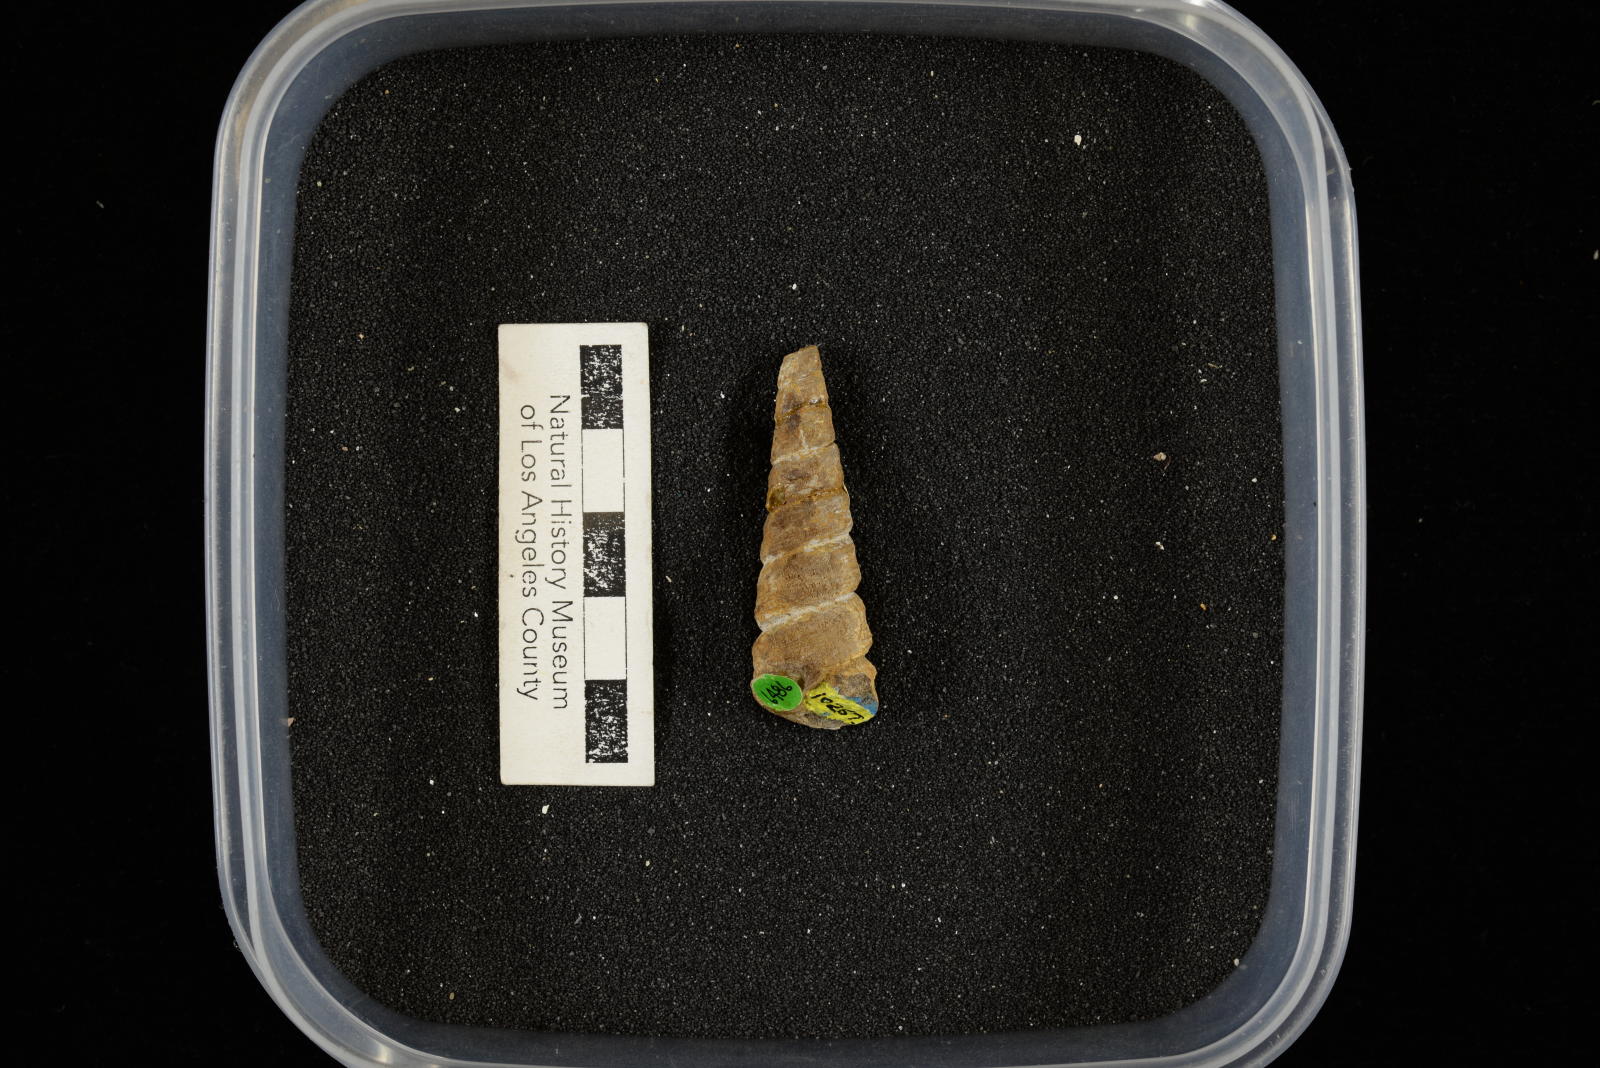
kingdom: Animalia
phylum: Mollusca
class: Gastropoda
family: Turritellidae
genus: Turritella
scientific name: Turritella chaneyi
